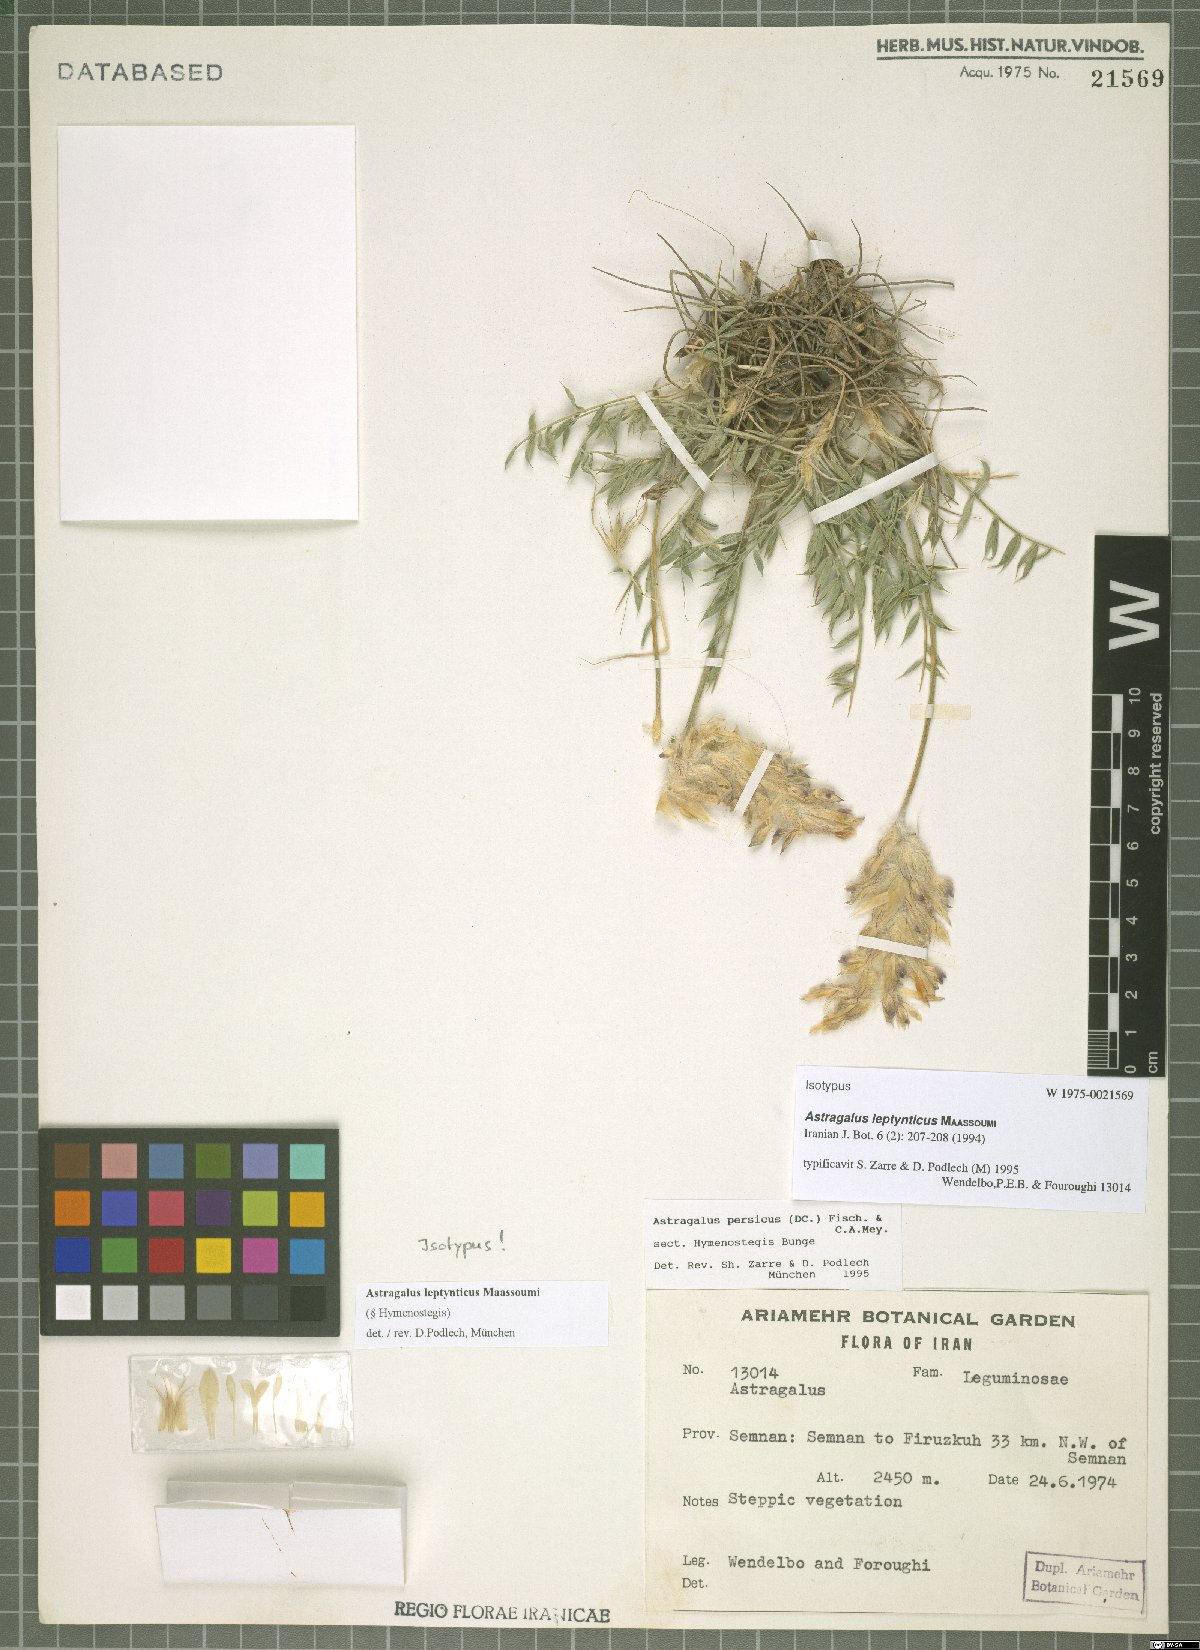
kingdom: Plantae
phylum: Tracheophyta
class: Magnoliopsida
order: Fabales
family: Fabaceae
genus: Astragalus
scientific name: Astragalus leptynticus
